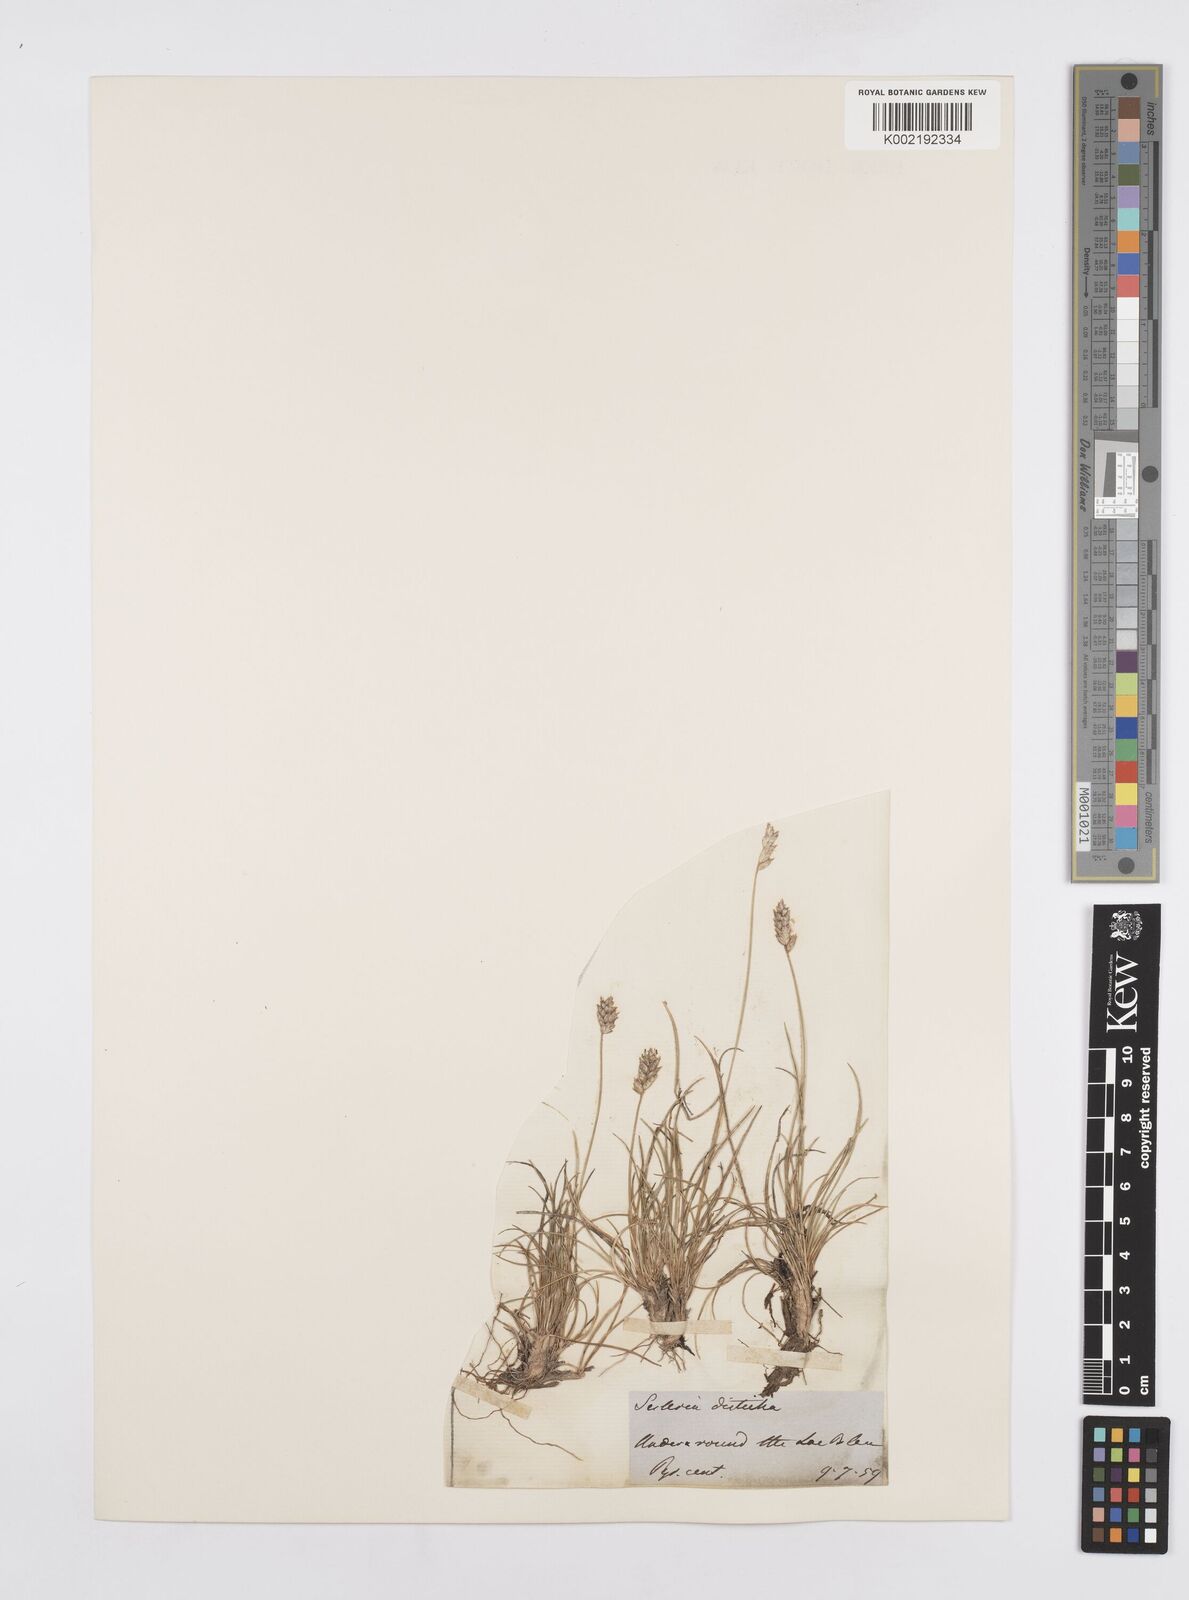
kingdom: Plantae
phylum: Tracheophyta
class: Liliopsida
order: Poales
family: Poaceae
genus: Oreochloa
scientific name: Oreochloa elegans
